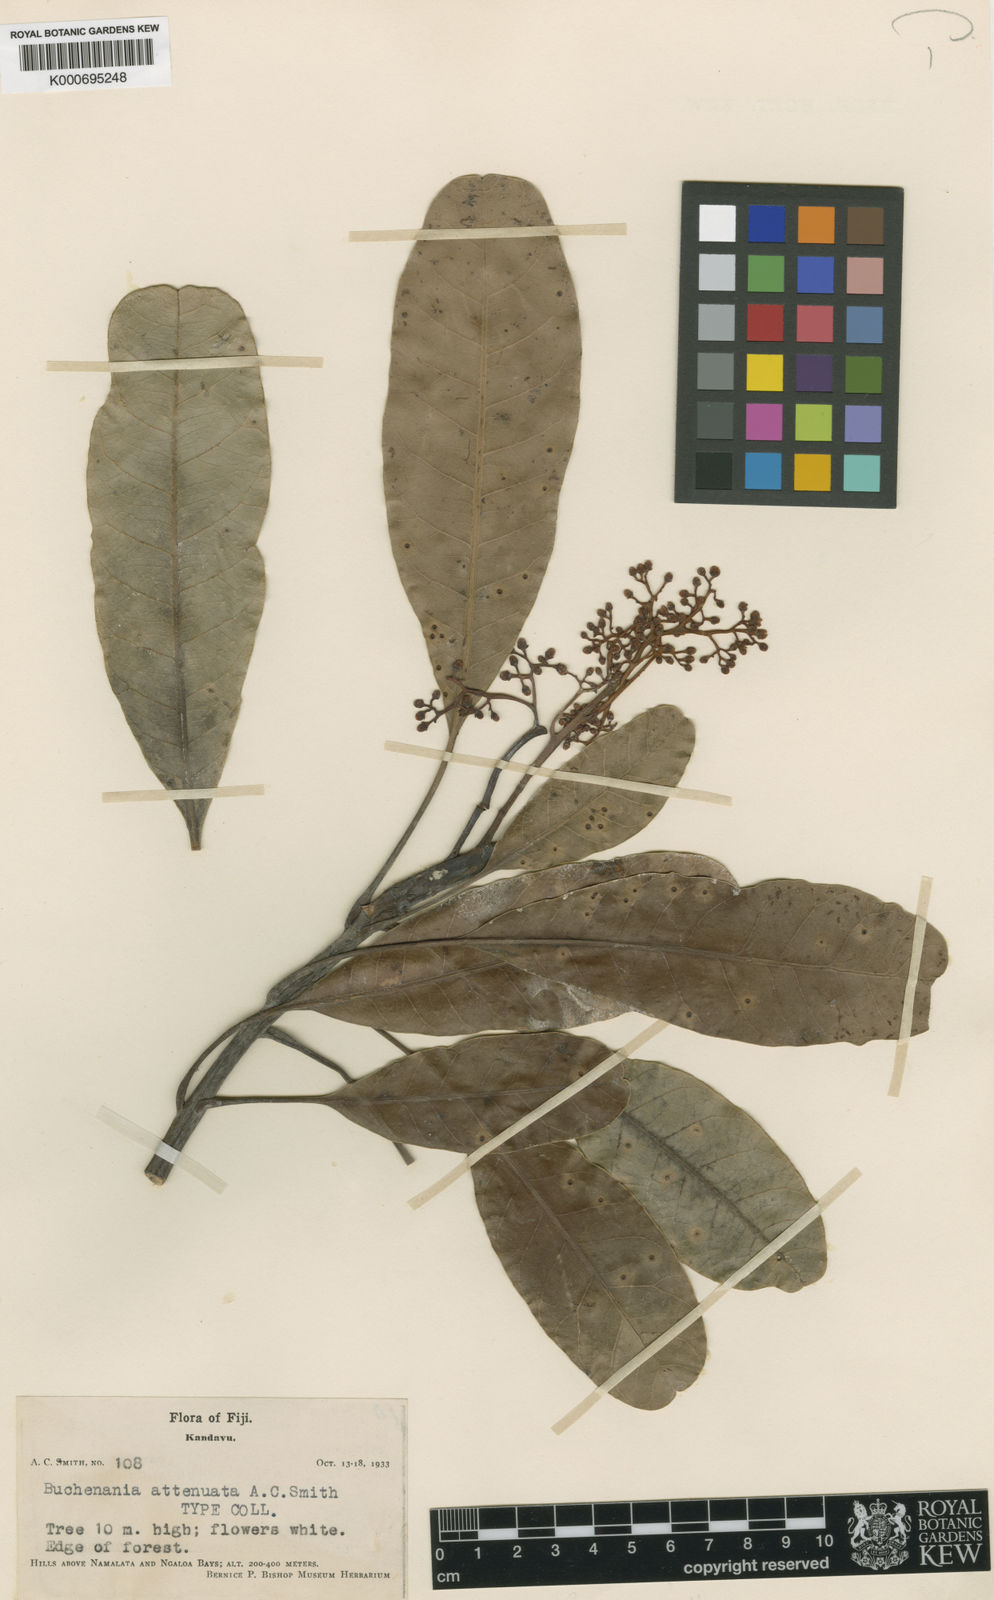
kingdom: Plantae
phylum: Tracheophyta
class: Magnoliopsida
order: Sapindales
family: Anacardiaceae
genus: Buchanania
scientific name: Buchanania attenuata
